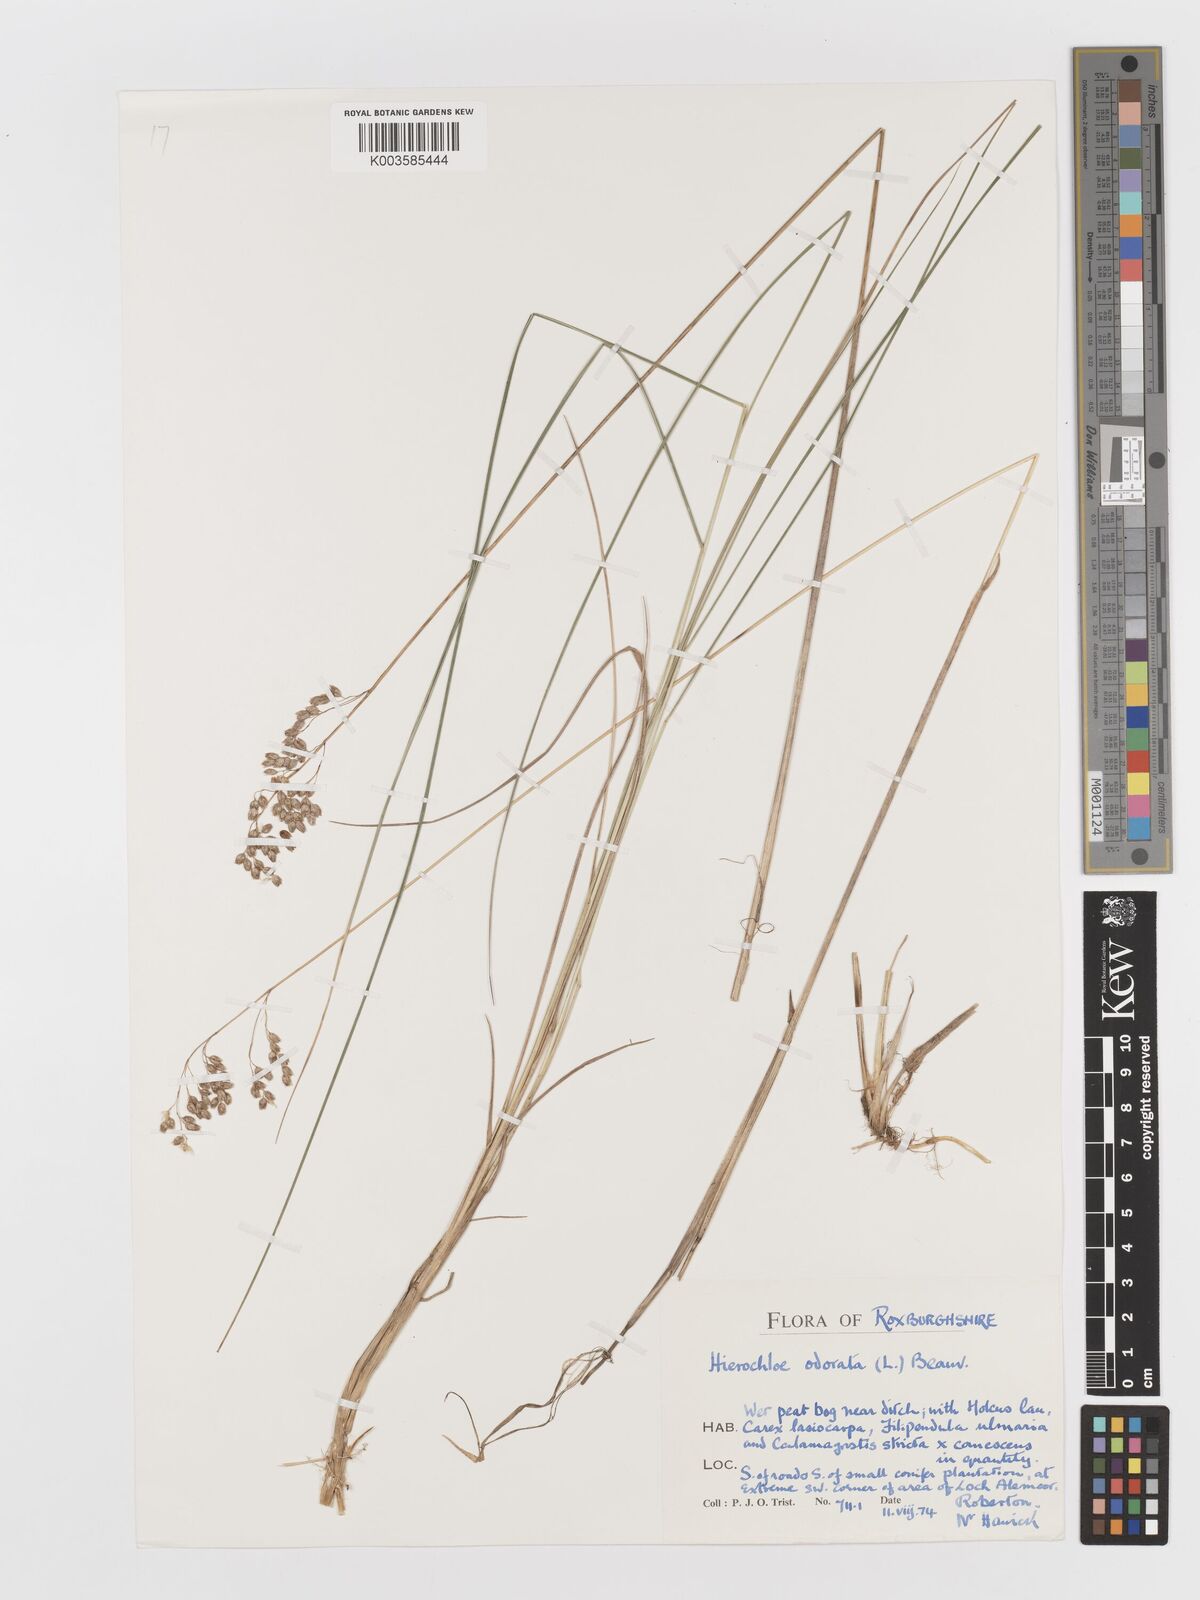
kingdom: Plantae
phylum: Tracheophyta
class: Liliopsida
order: Poales
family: Poaceae
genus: Anthoxanthum
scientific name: Anthoxanthum nitens
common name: Holy grass
